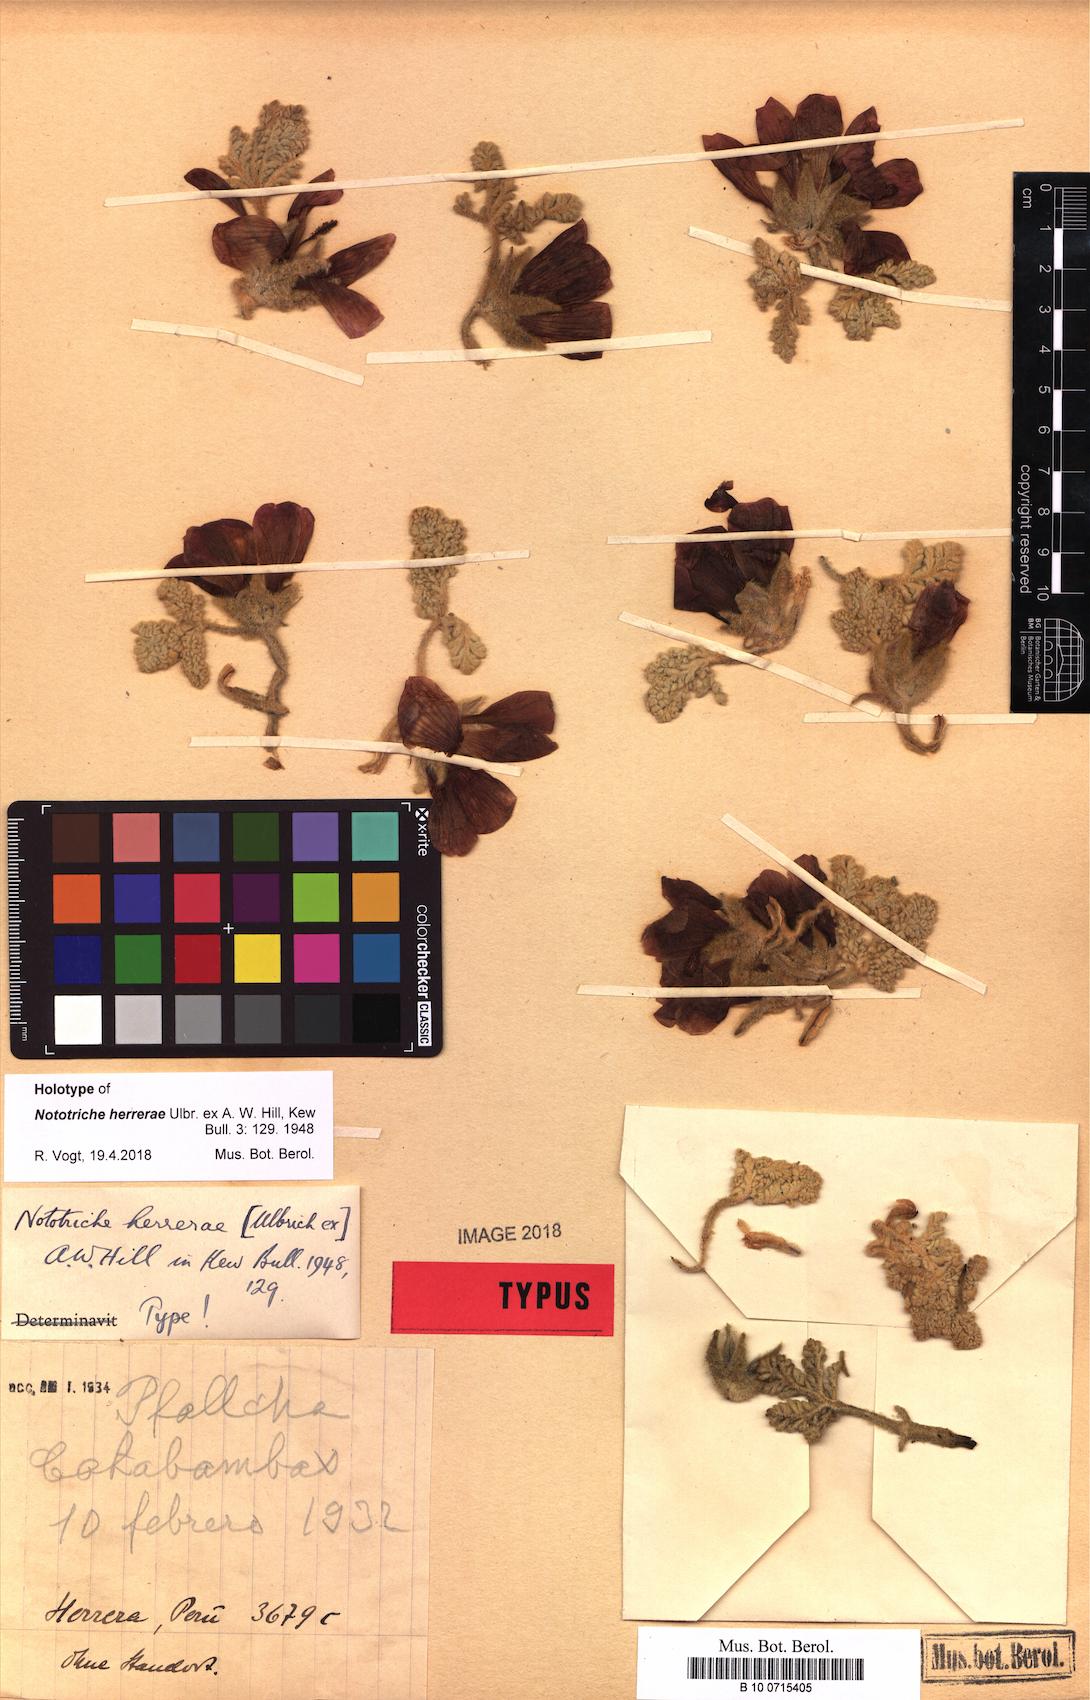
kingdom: Plantae
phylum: Tracheophyta
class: Magnoliopsida
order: Malvales
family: Malvaceae
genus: Nototriche
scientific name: Nototriche sulphurea
